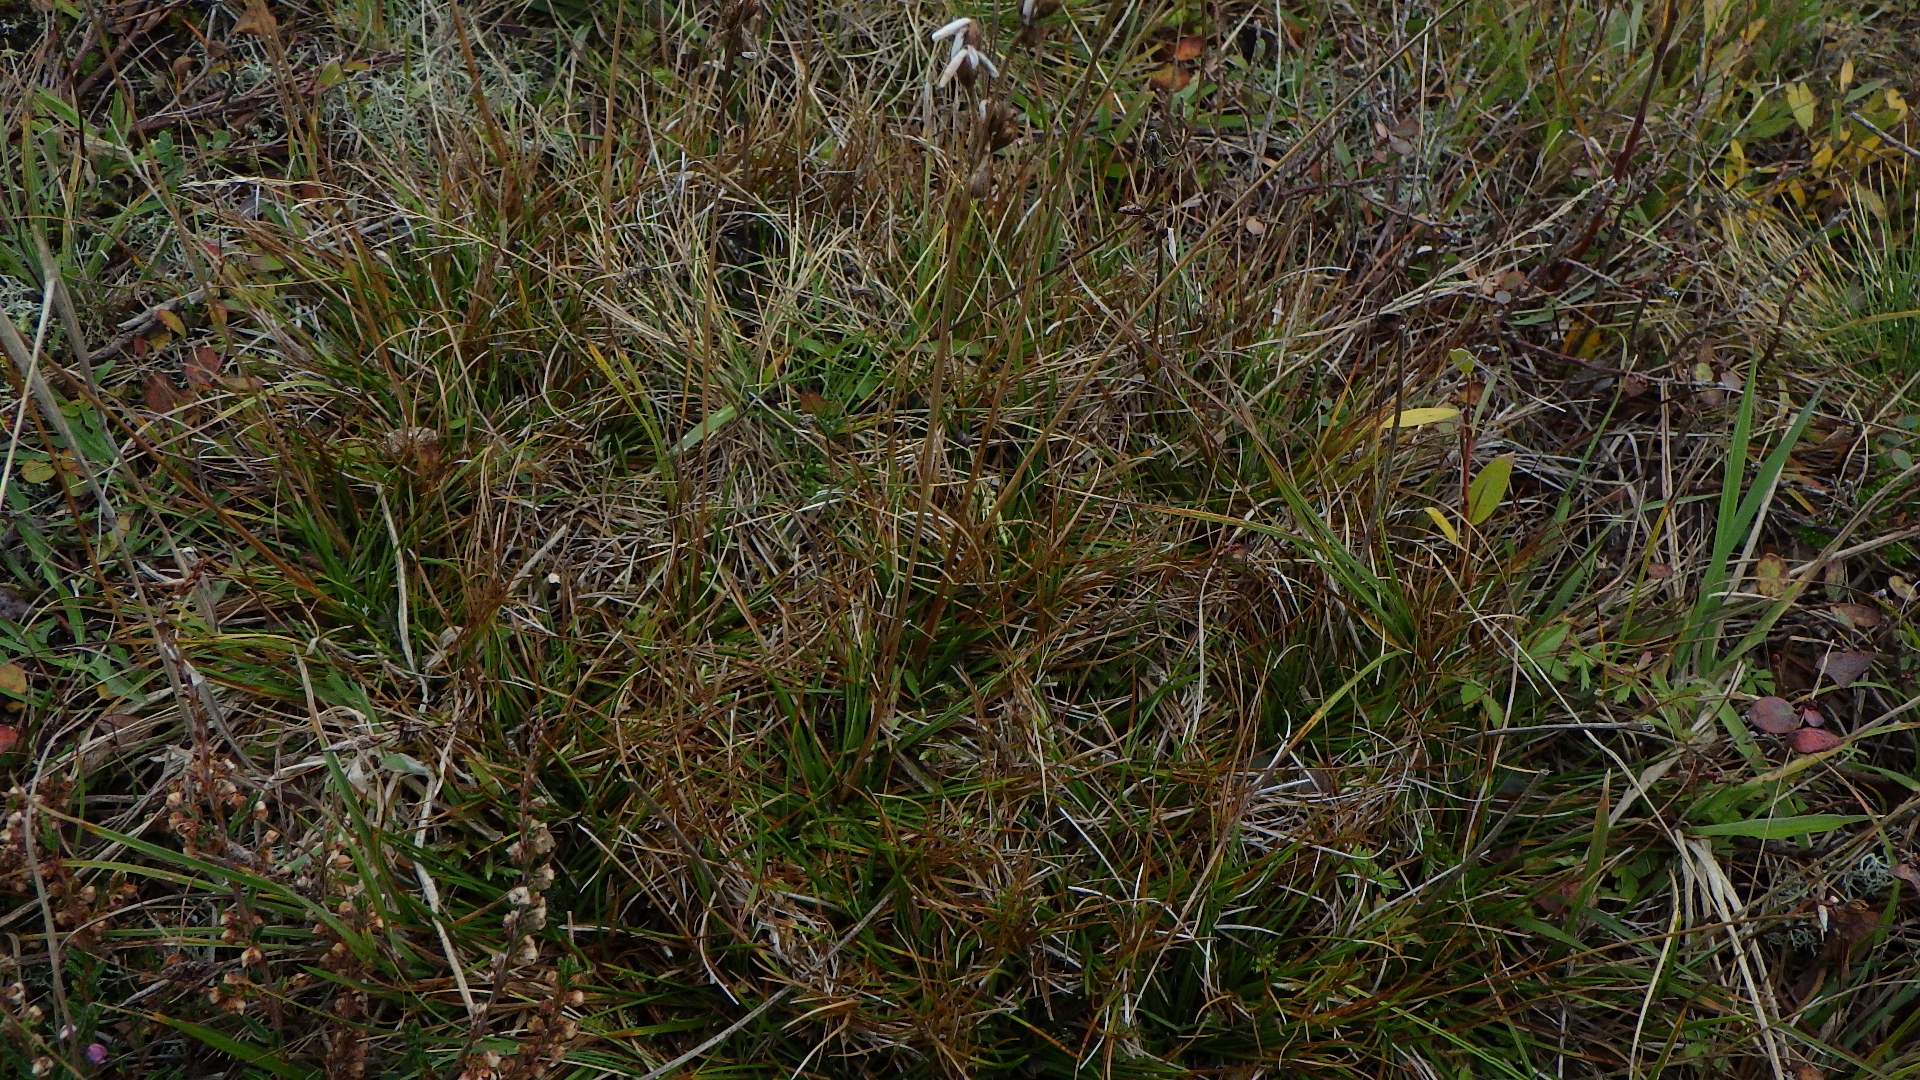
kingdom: Plantae
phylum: Tracheophyta
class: Liliopsida
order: Poales
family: Juncaceae
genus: Juncus
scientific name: Juncus squarrosus
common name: Børste-siv
